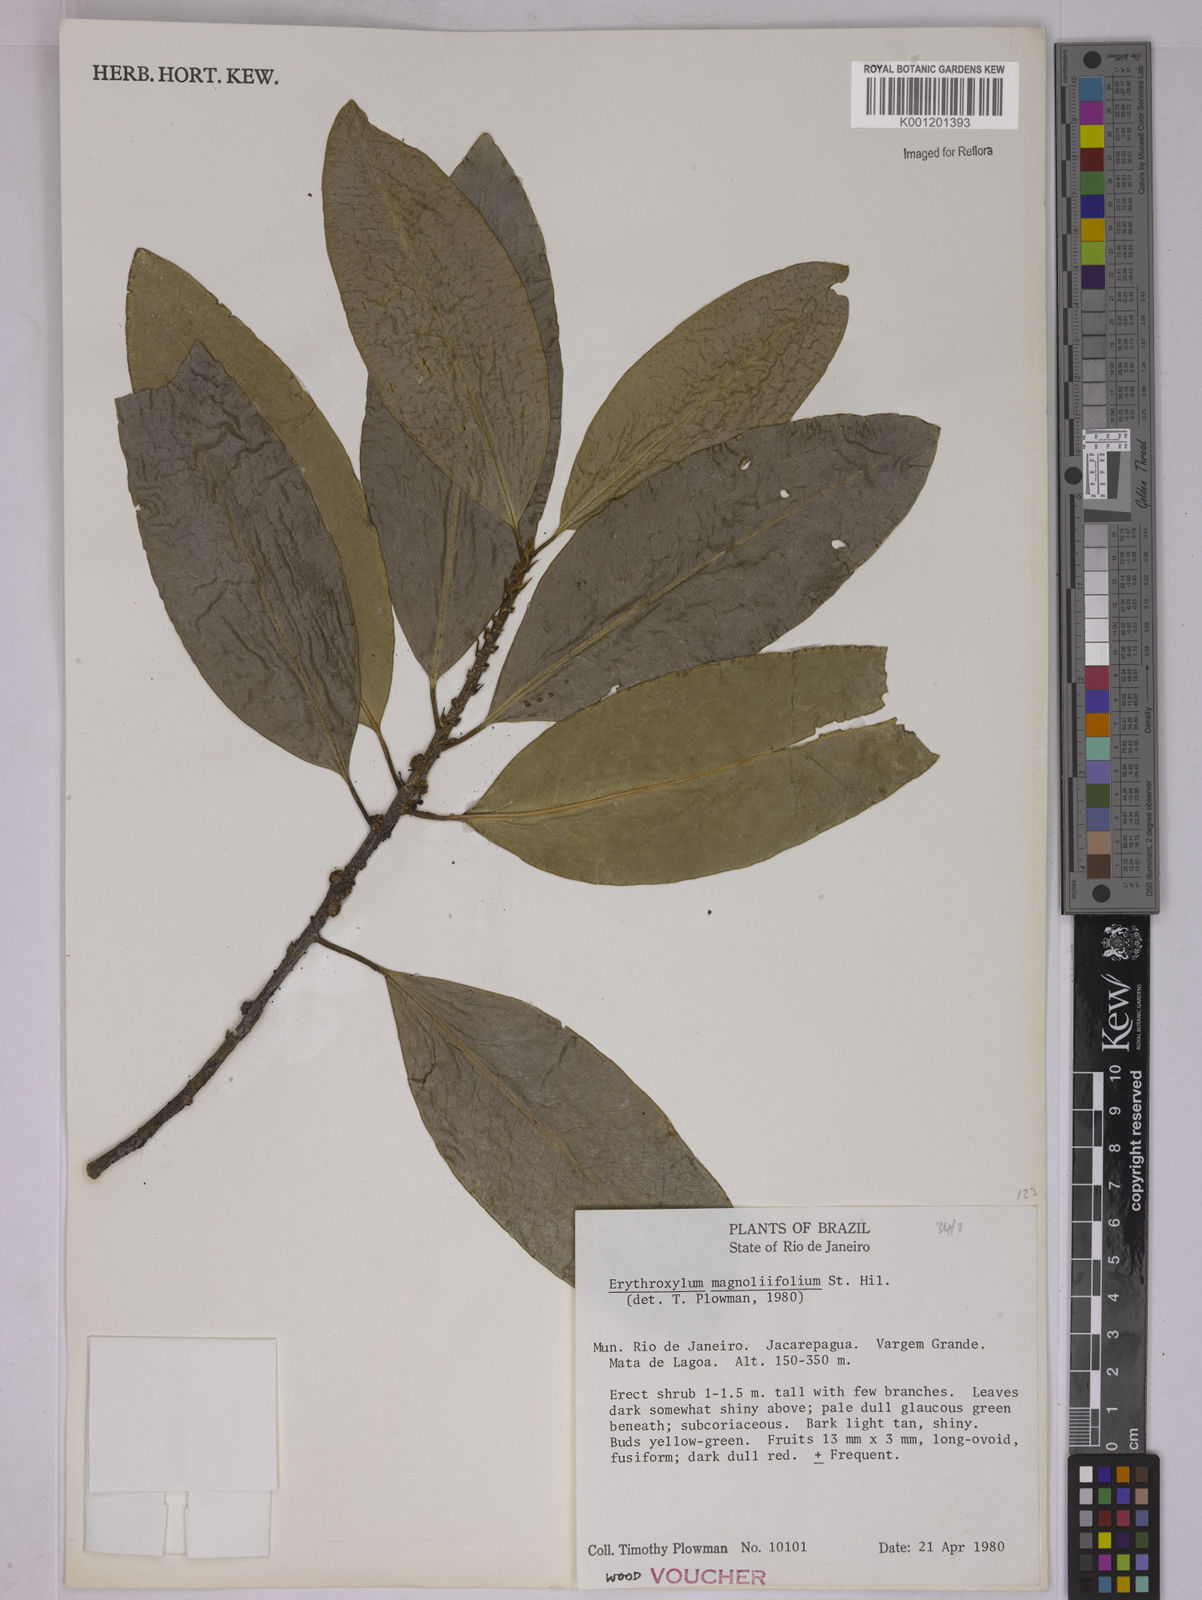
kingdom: Plantae
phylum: Tracheophyta
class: Magnoliopsida
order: Malpighiales
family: Erythroxylaceae
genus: Erythroxylum
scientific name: Erythroxylum magnoliifolium
